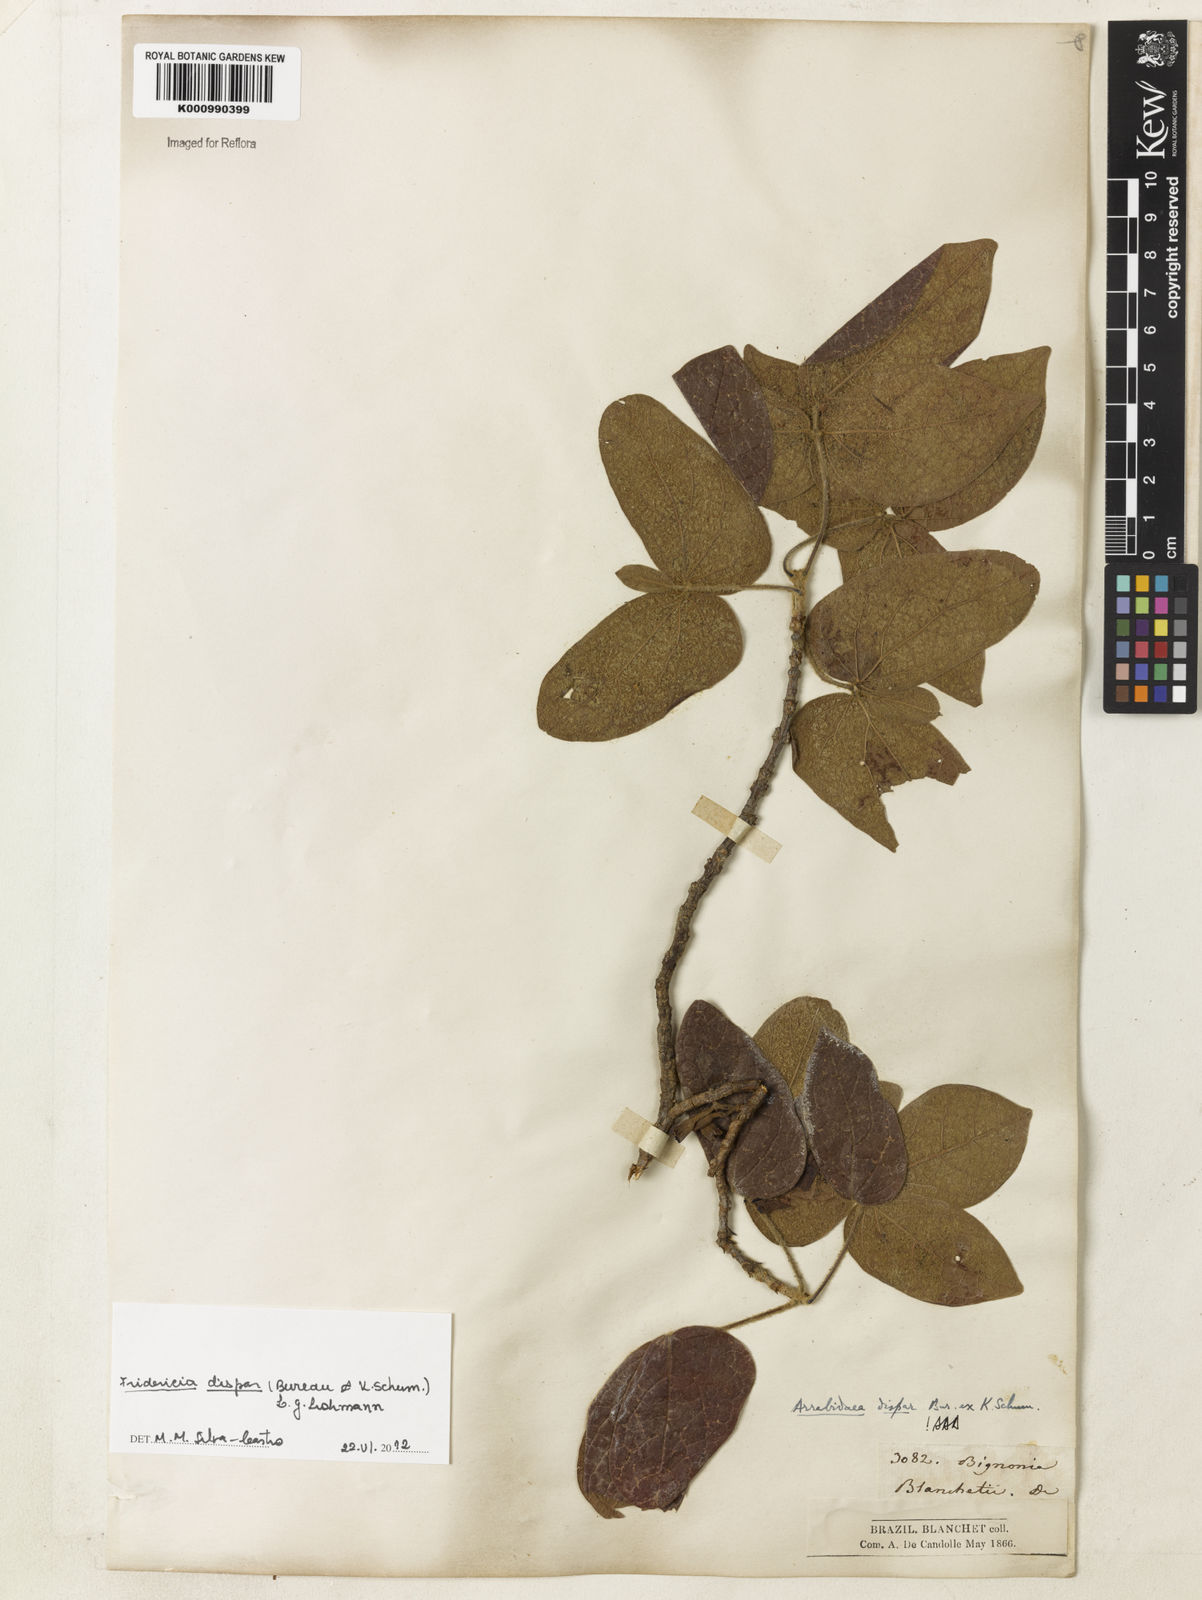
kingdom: Plantae
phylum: Tracheophyta
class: Magnoliopsida
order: Lamiales
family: Bignoniaceae
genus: Fridericia
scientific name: Fridericia dispar
